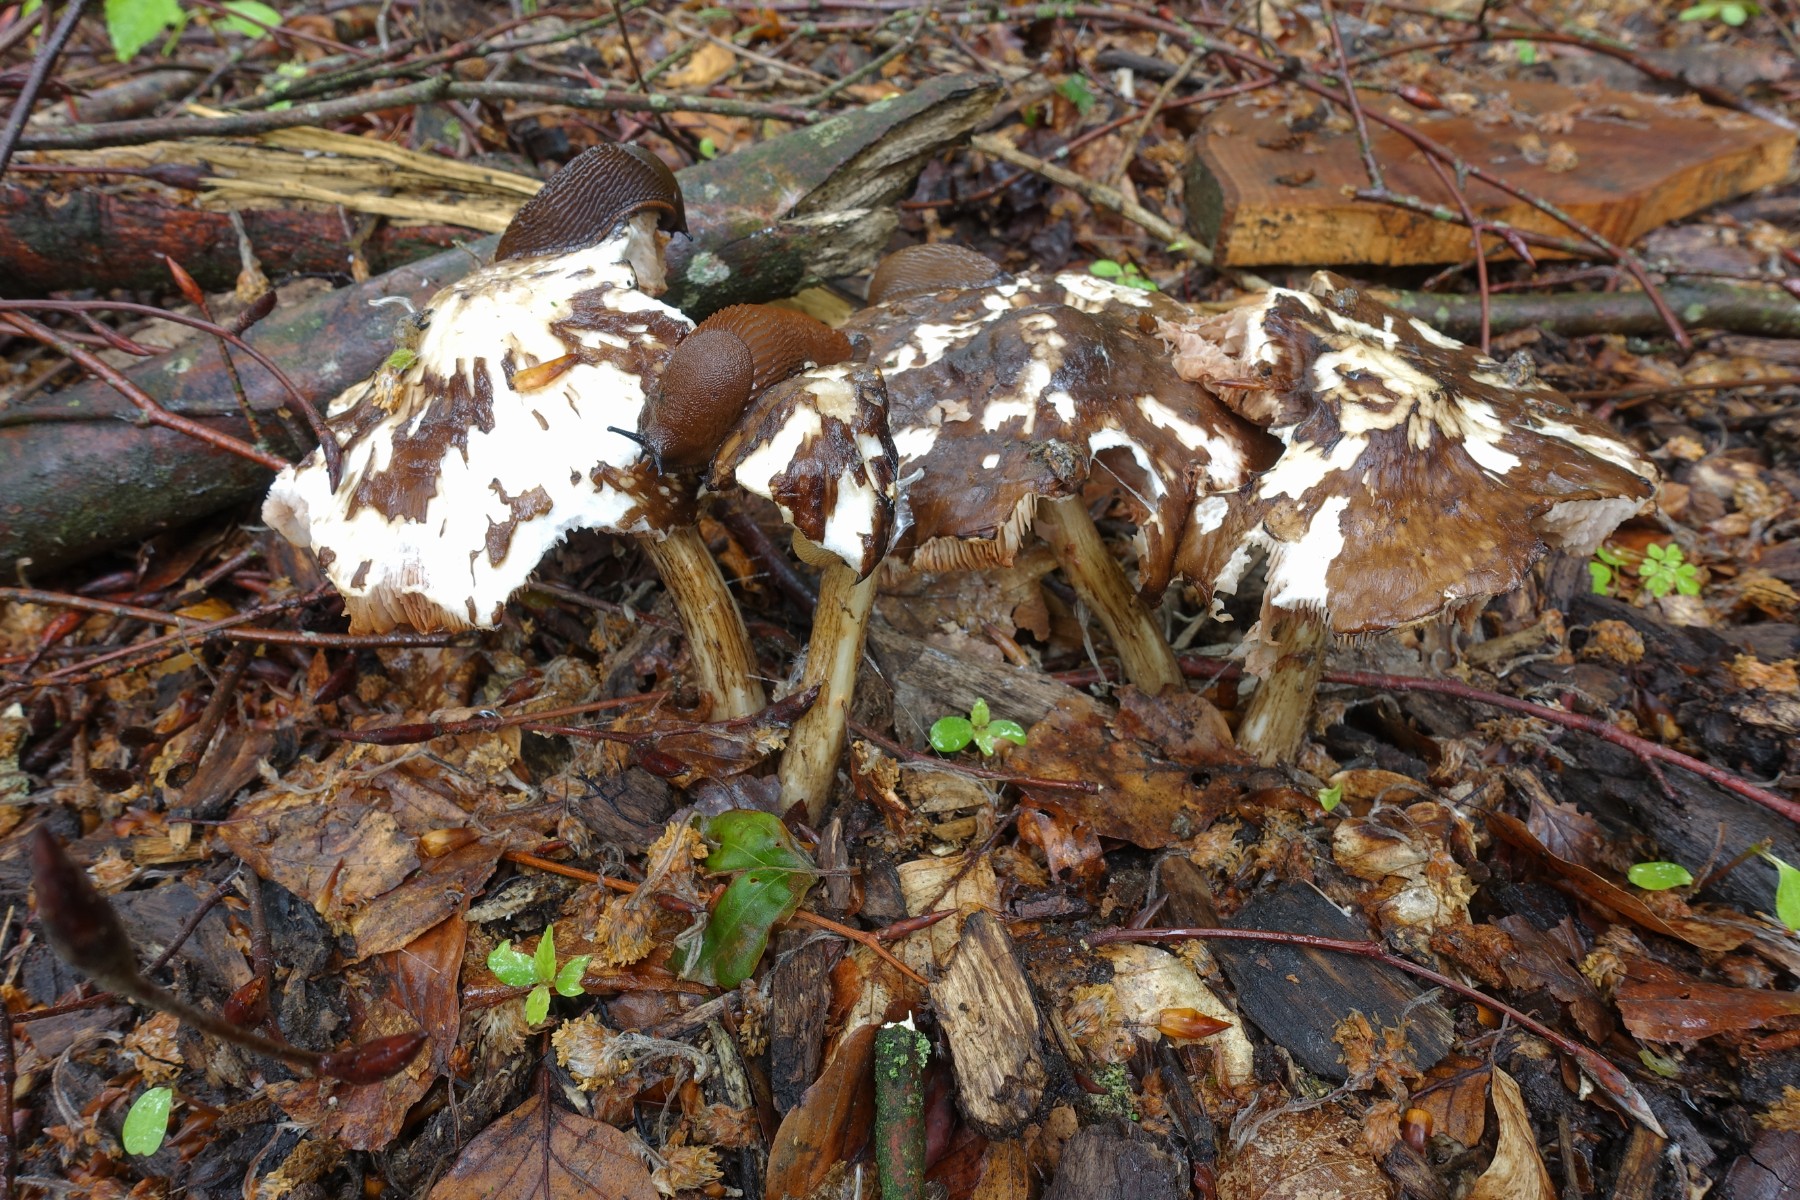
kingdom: Fungi
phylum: Basidiomycota
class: Agaricomycetes
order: Agaricales
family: Pluteaceae
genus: Pluteus
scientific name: Pluteus cervinus
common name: sodfarvet skærmhat
